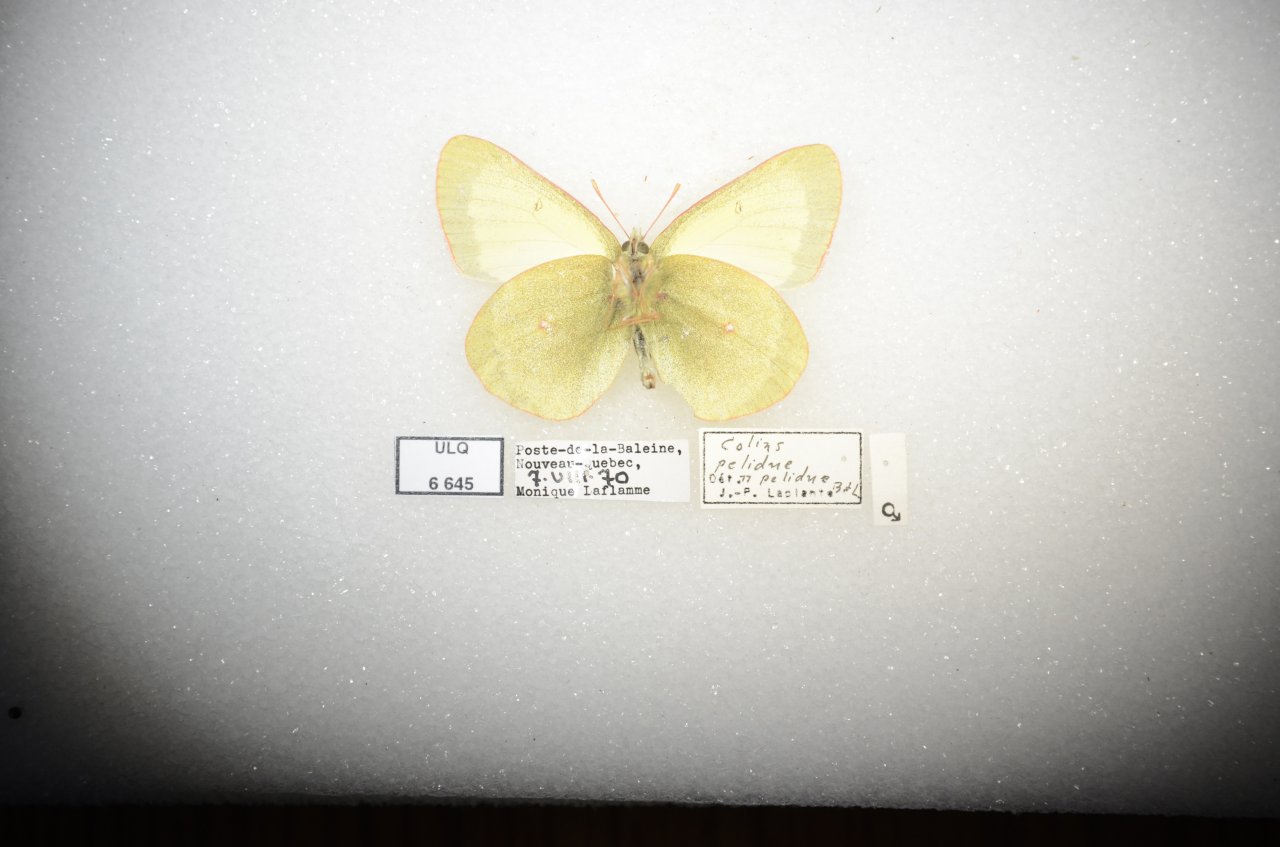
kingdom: Animalia
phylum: Arthropoda
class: Insecta
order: Lepidoptera
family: Pieridae
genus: Colias
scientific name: Colias pelidne
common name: Pelidne Sulphur
